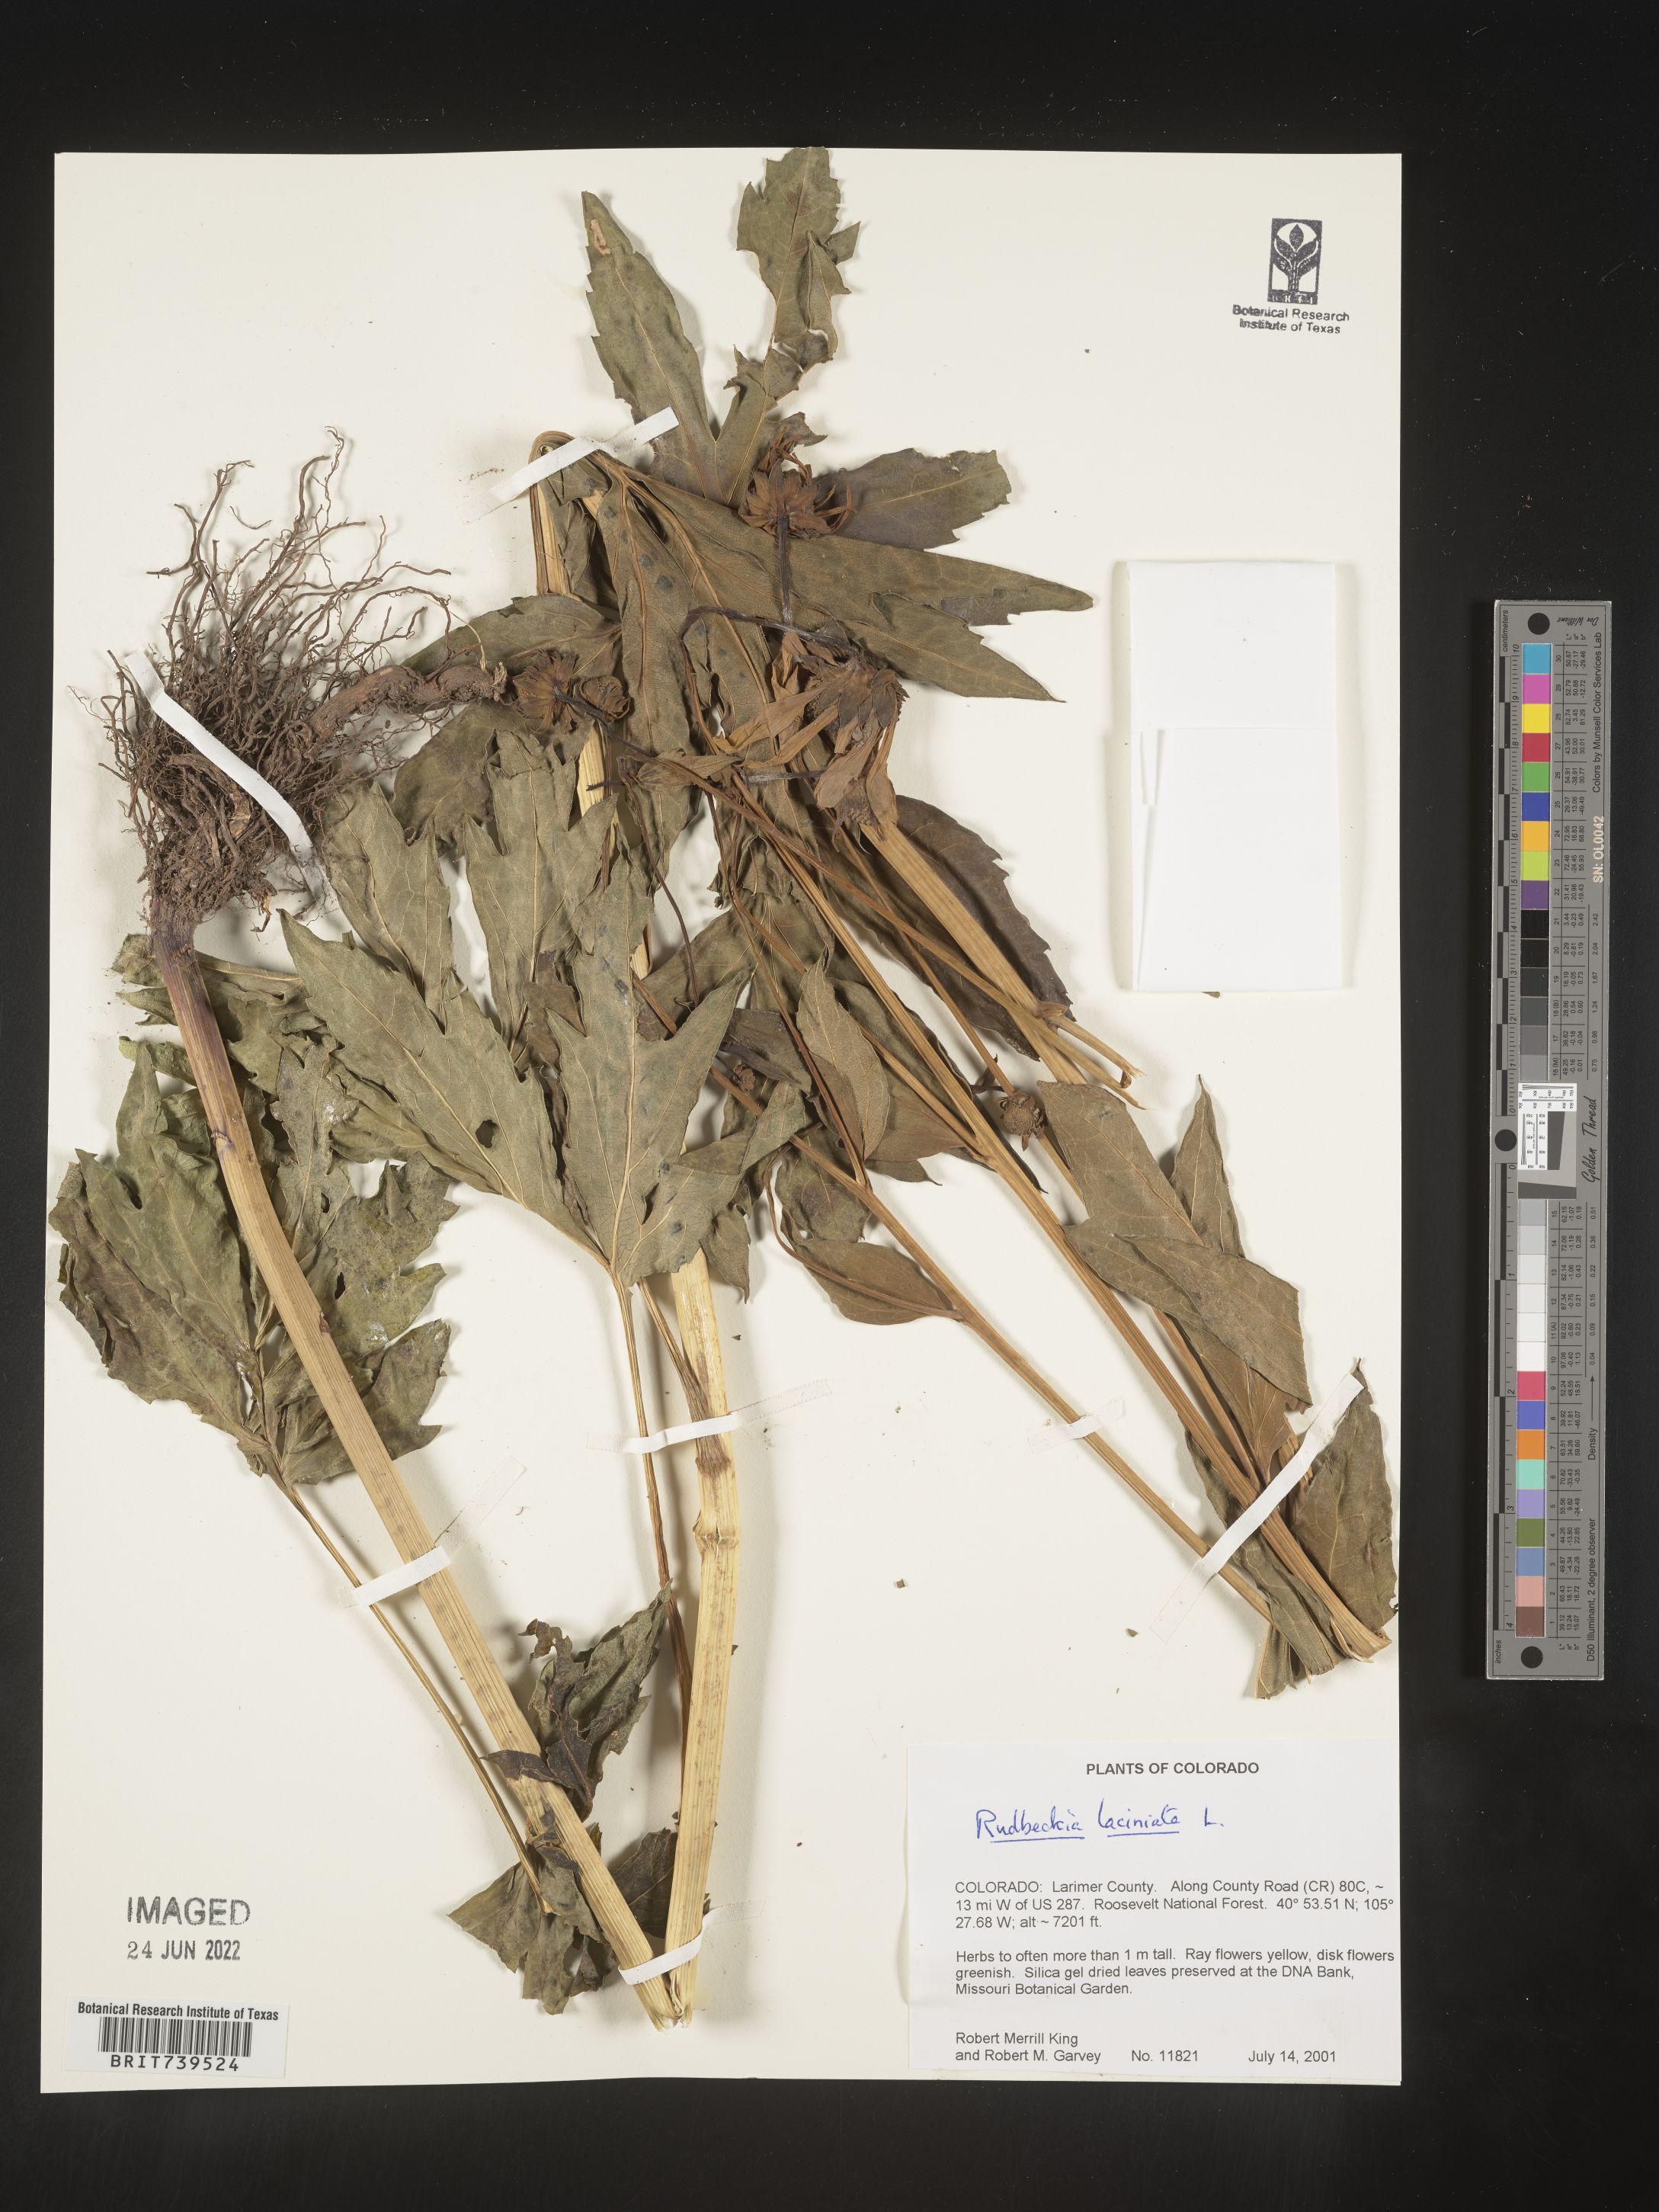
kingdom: Plantae
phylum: Tracheophyta
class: Magnoliopsida
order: Asterales
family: Asteraceae
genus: Rudbeckia
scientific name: Rudbeckia laciniata
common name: Coneflower
